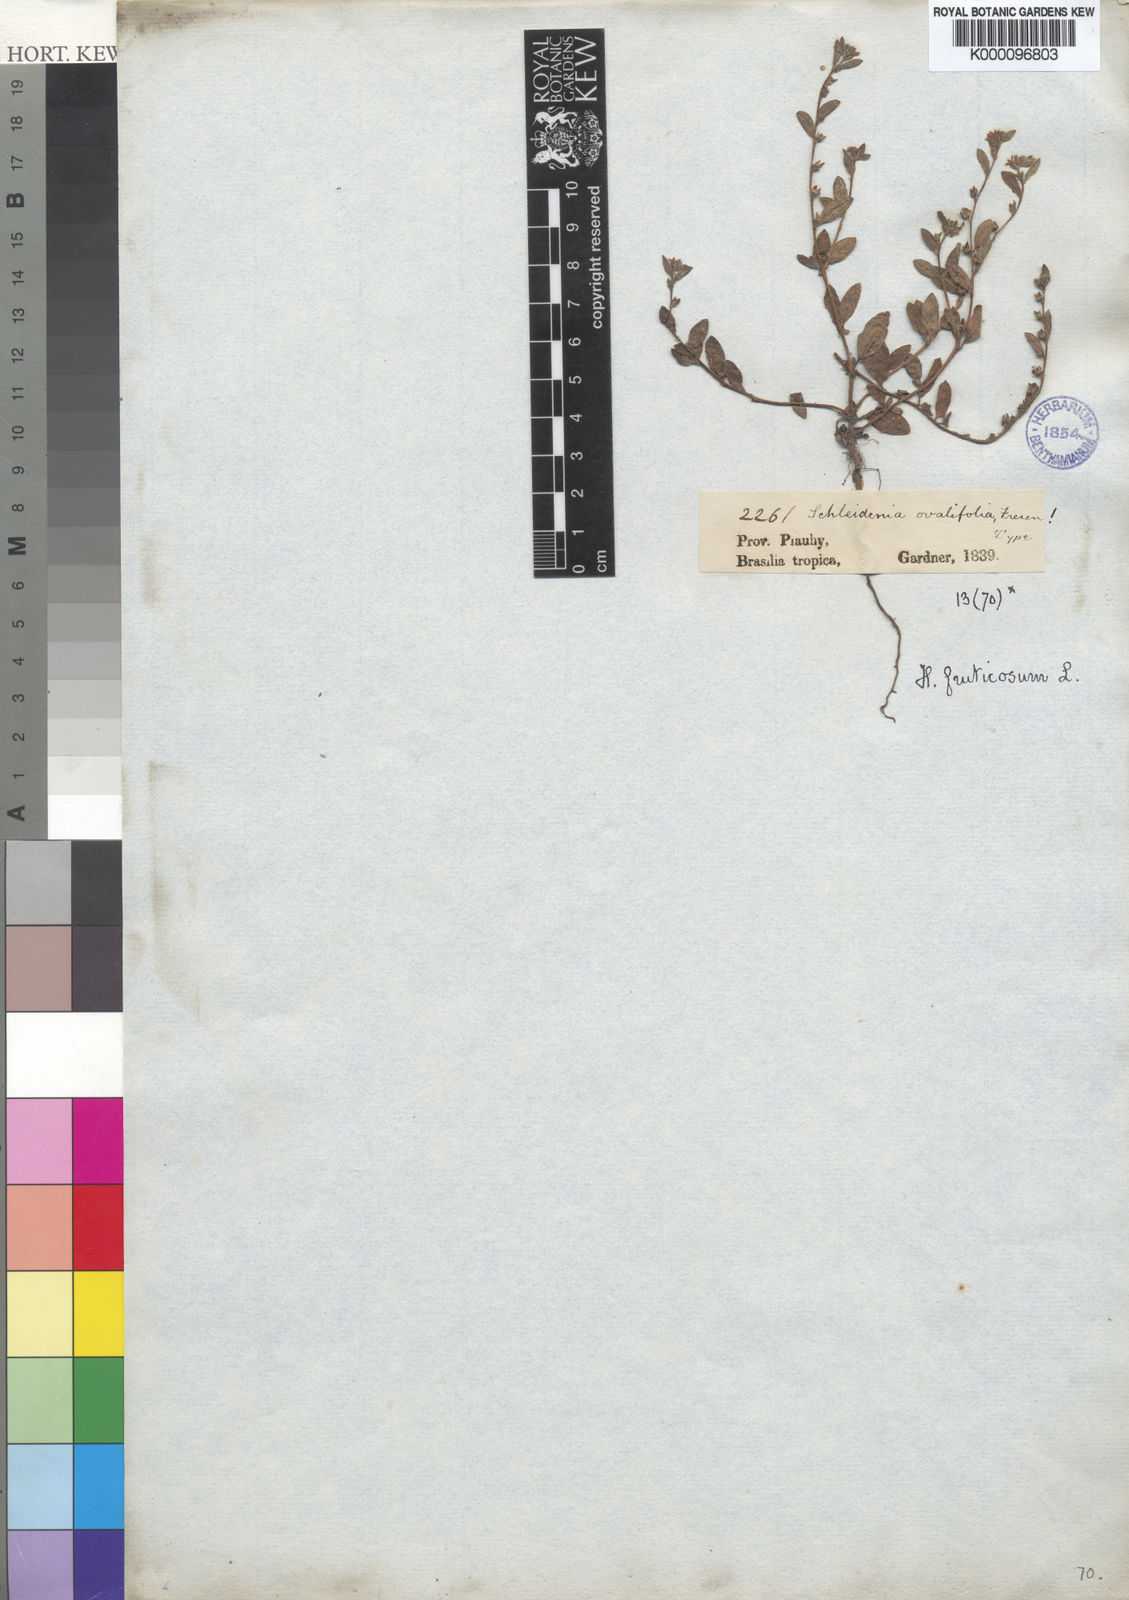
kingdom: Plantae
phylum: Tracheophyta
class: Magnoliopsida
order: Boraginales
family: Heliotropiaceae
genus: Euploca
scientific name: Euploca fruticosa
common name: Key west heliotrope
